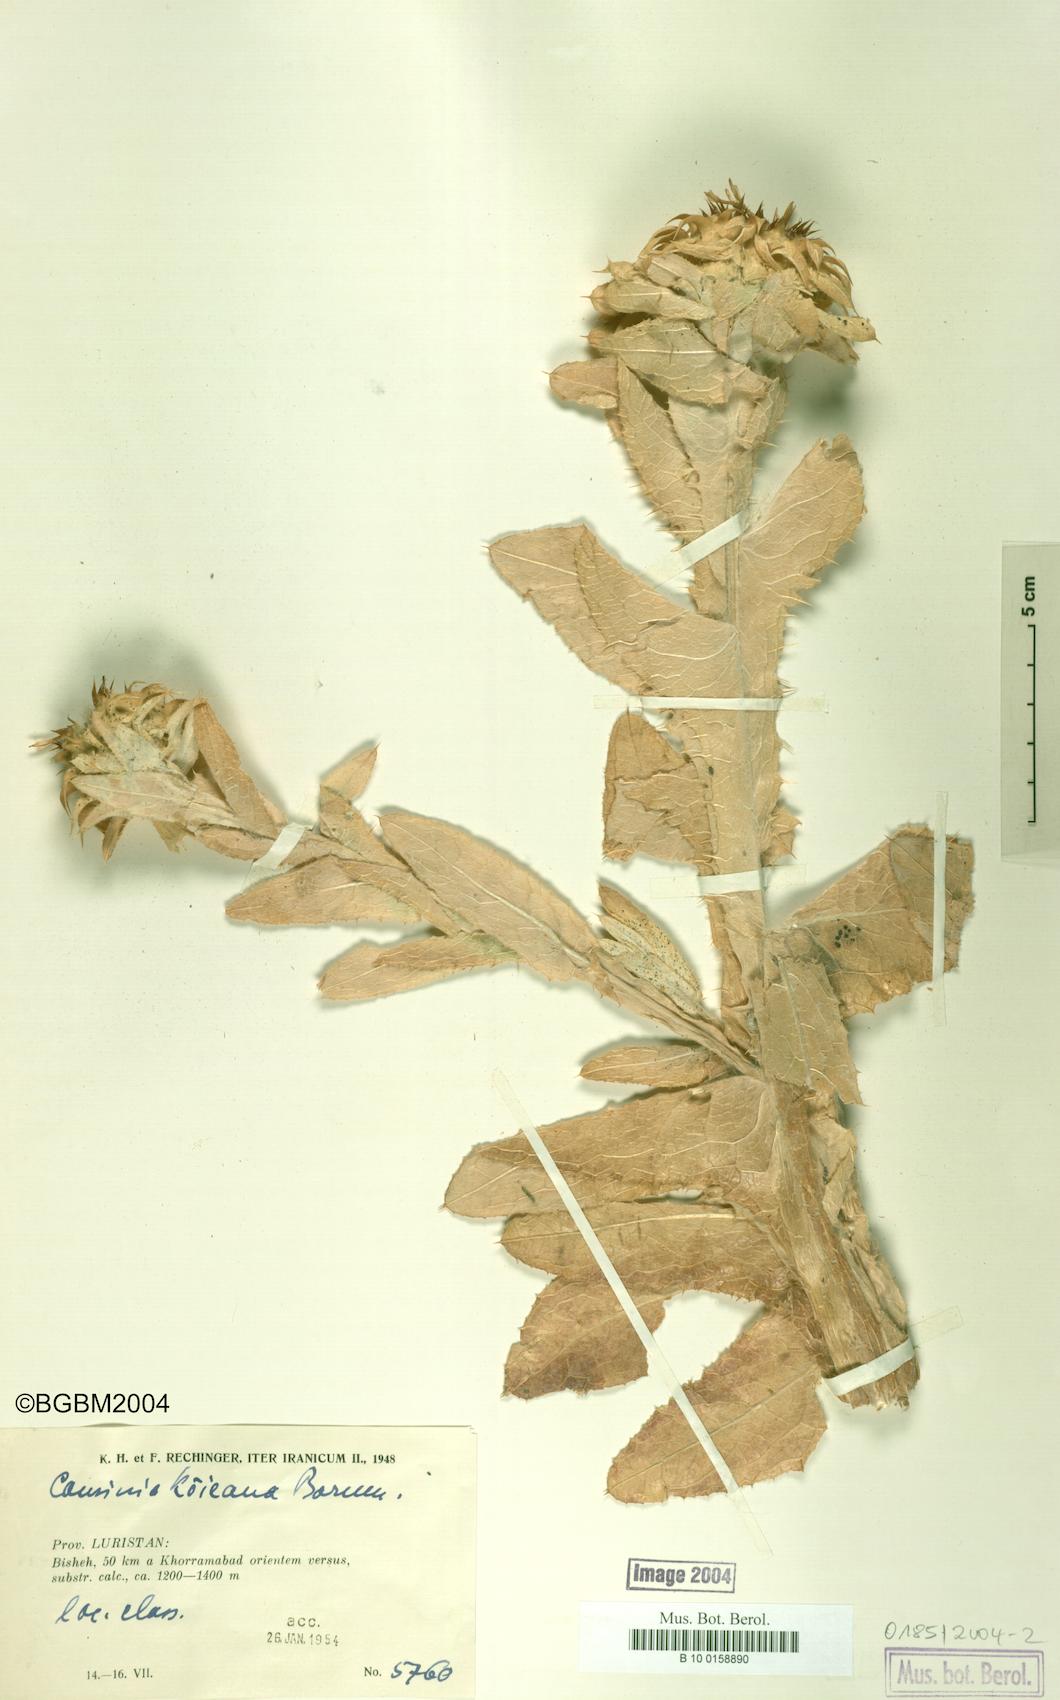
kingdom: Plantae
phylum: Tracheophyta
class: Magnoliopsida
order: Asterales
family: Asteraceae
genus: Cousinia
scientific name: Cousinia phyllocephala
